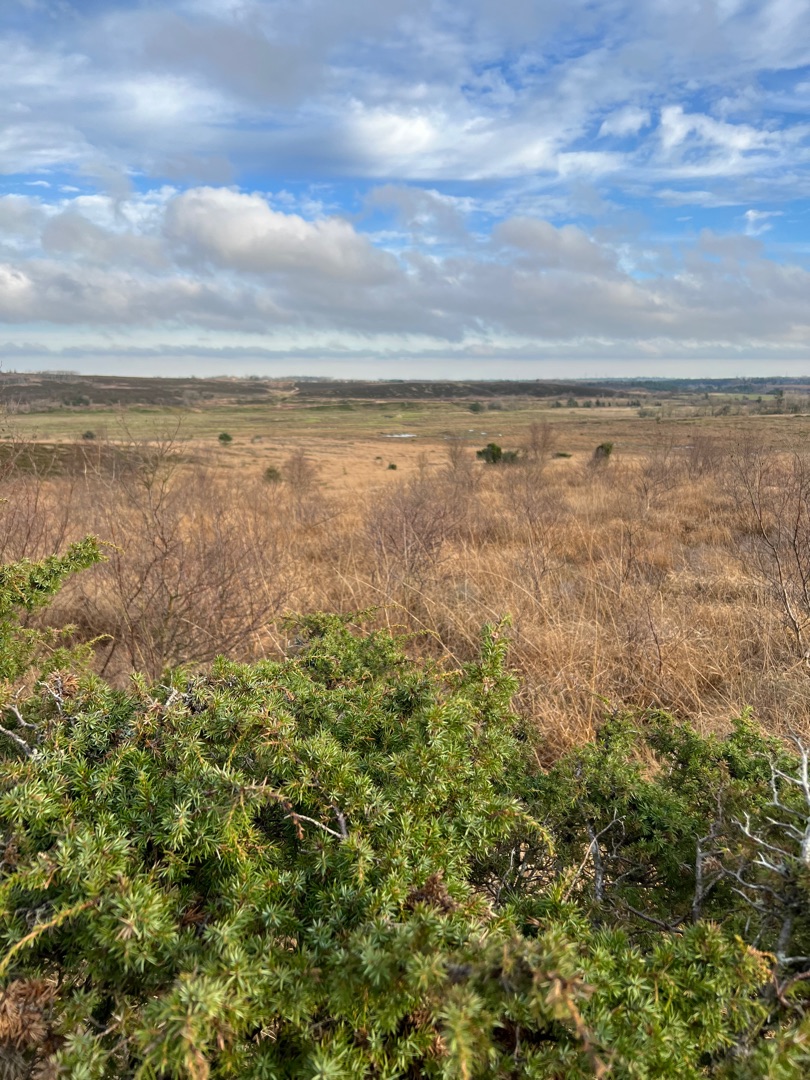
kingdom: Plantae
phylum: Tracheophyta
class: Pinopsida
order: Pinales
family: Cupressaceae
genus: Juniperus
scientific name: Juniperus communis
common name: Almindelig ene
